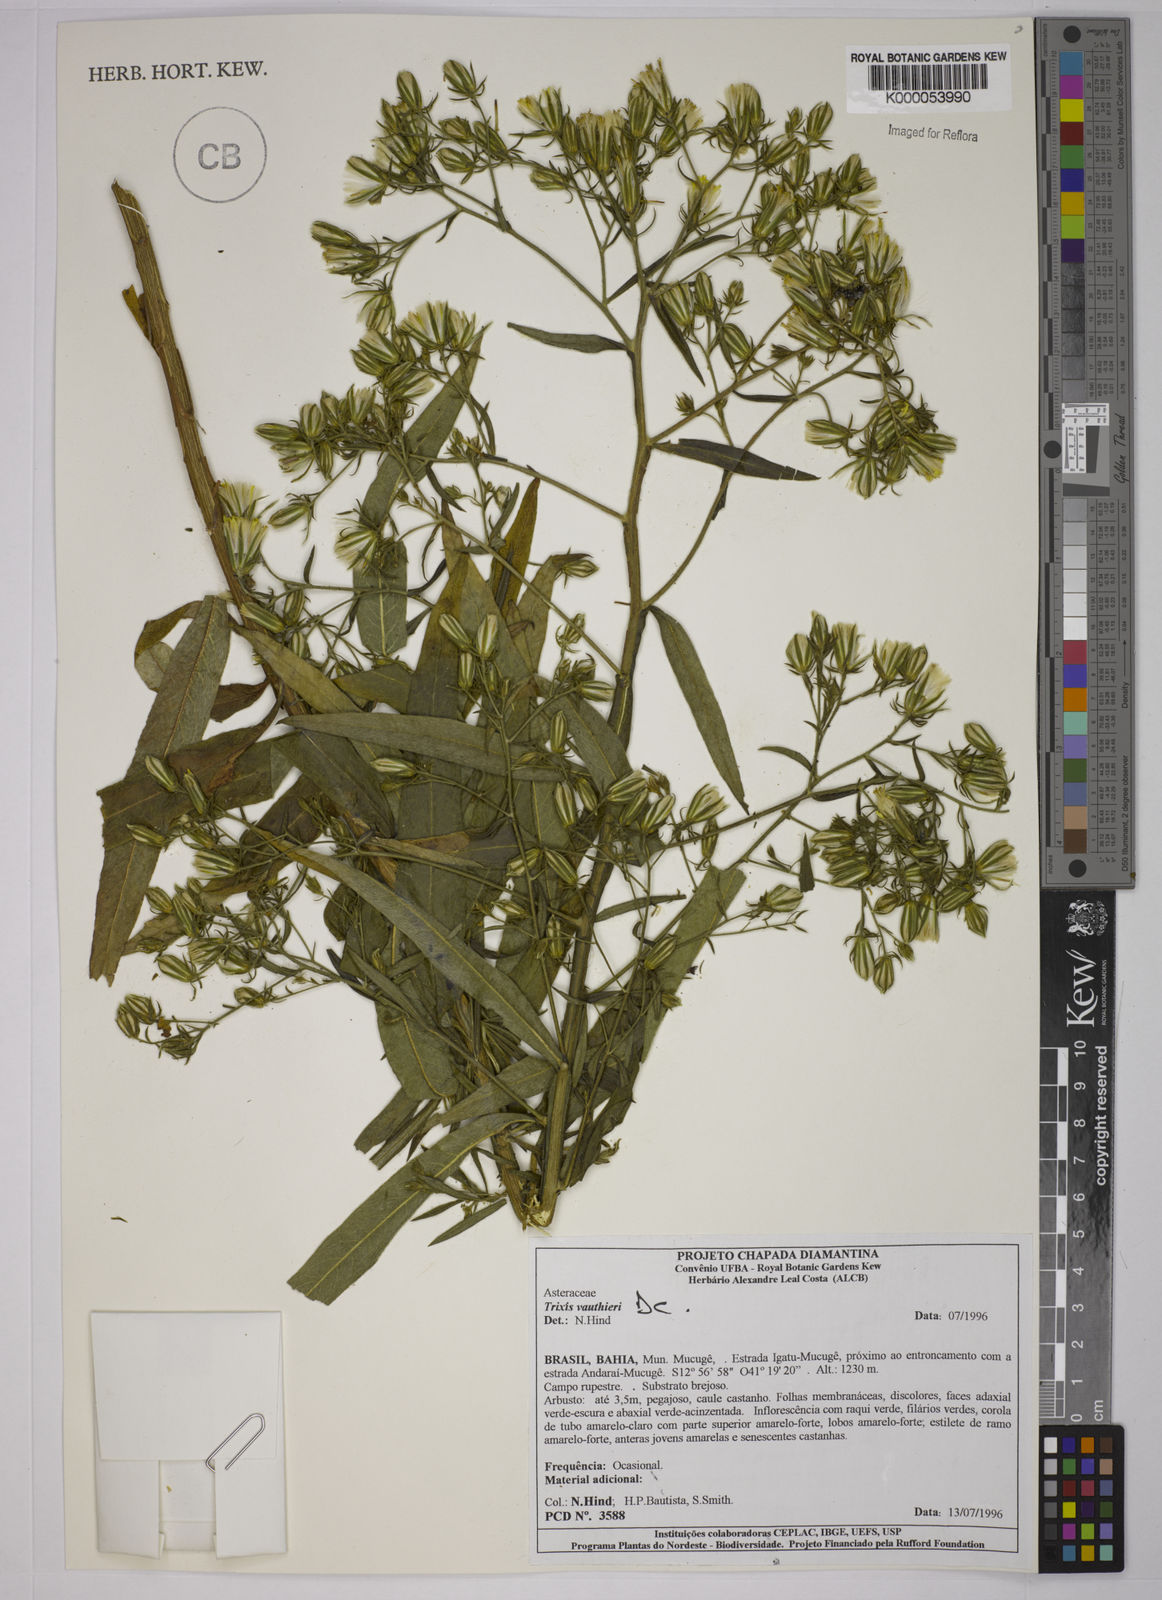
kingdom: Plantae
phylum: Tracheophyta
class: Magnoliopsida
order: Asterales
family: Asteraceae
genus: Trixis
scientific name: Trixis vauthieri
